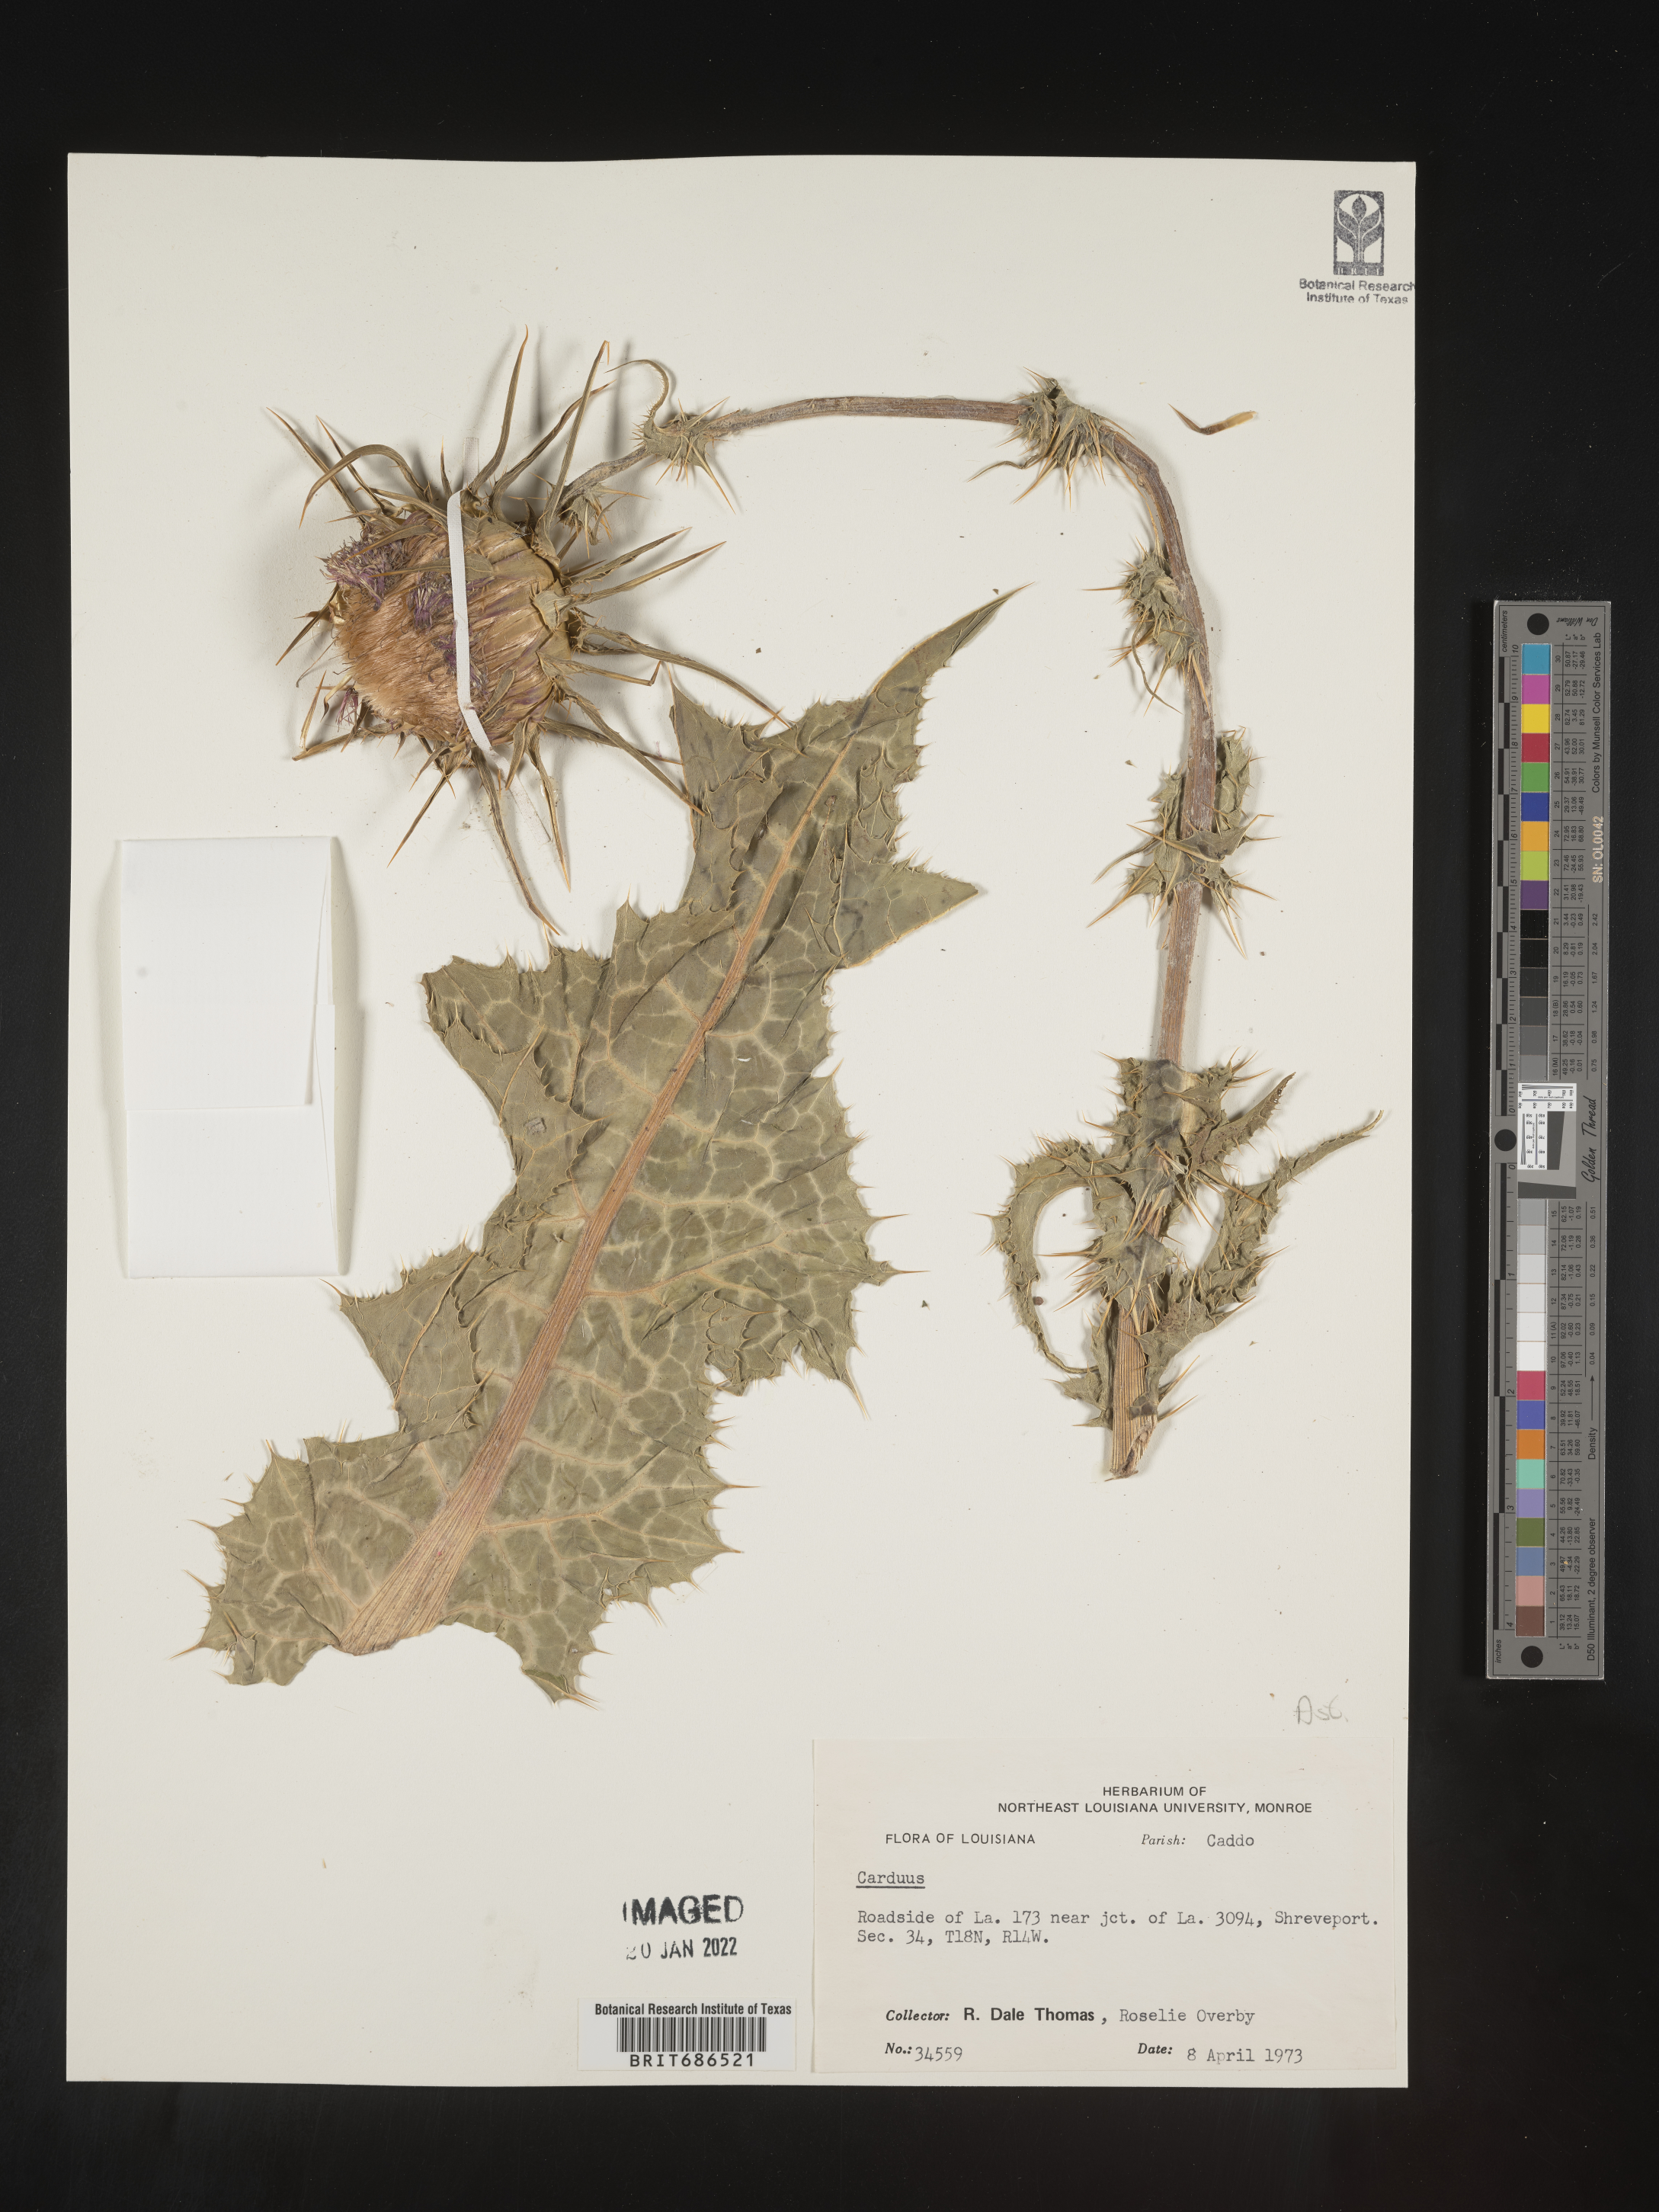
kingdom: Plantae
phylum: Tracheophyta
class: Magnoliopsida
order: Asterales
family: Asteraceae
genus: Carduus
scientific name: Carduus nutans
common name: Musk thistle
